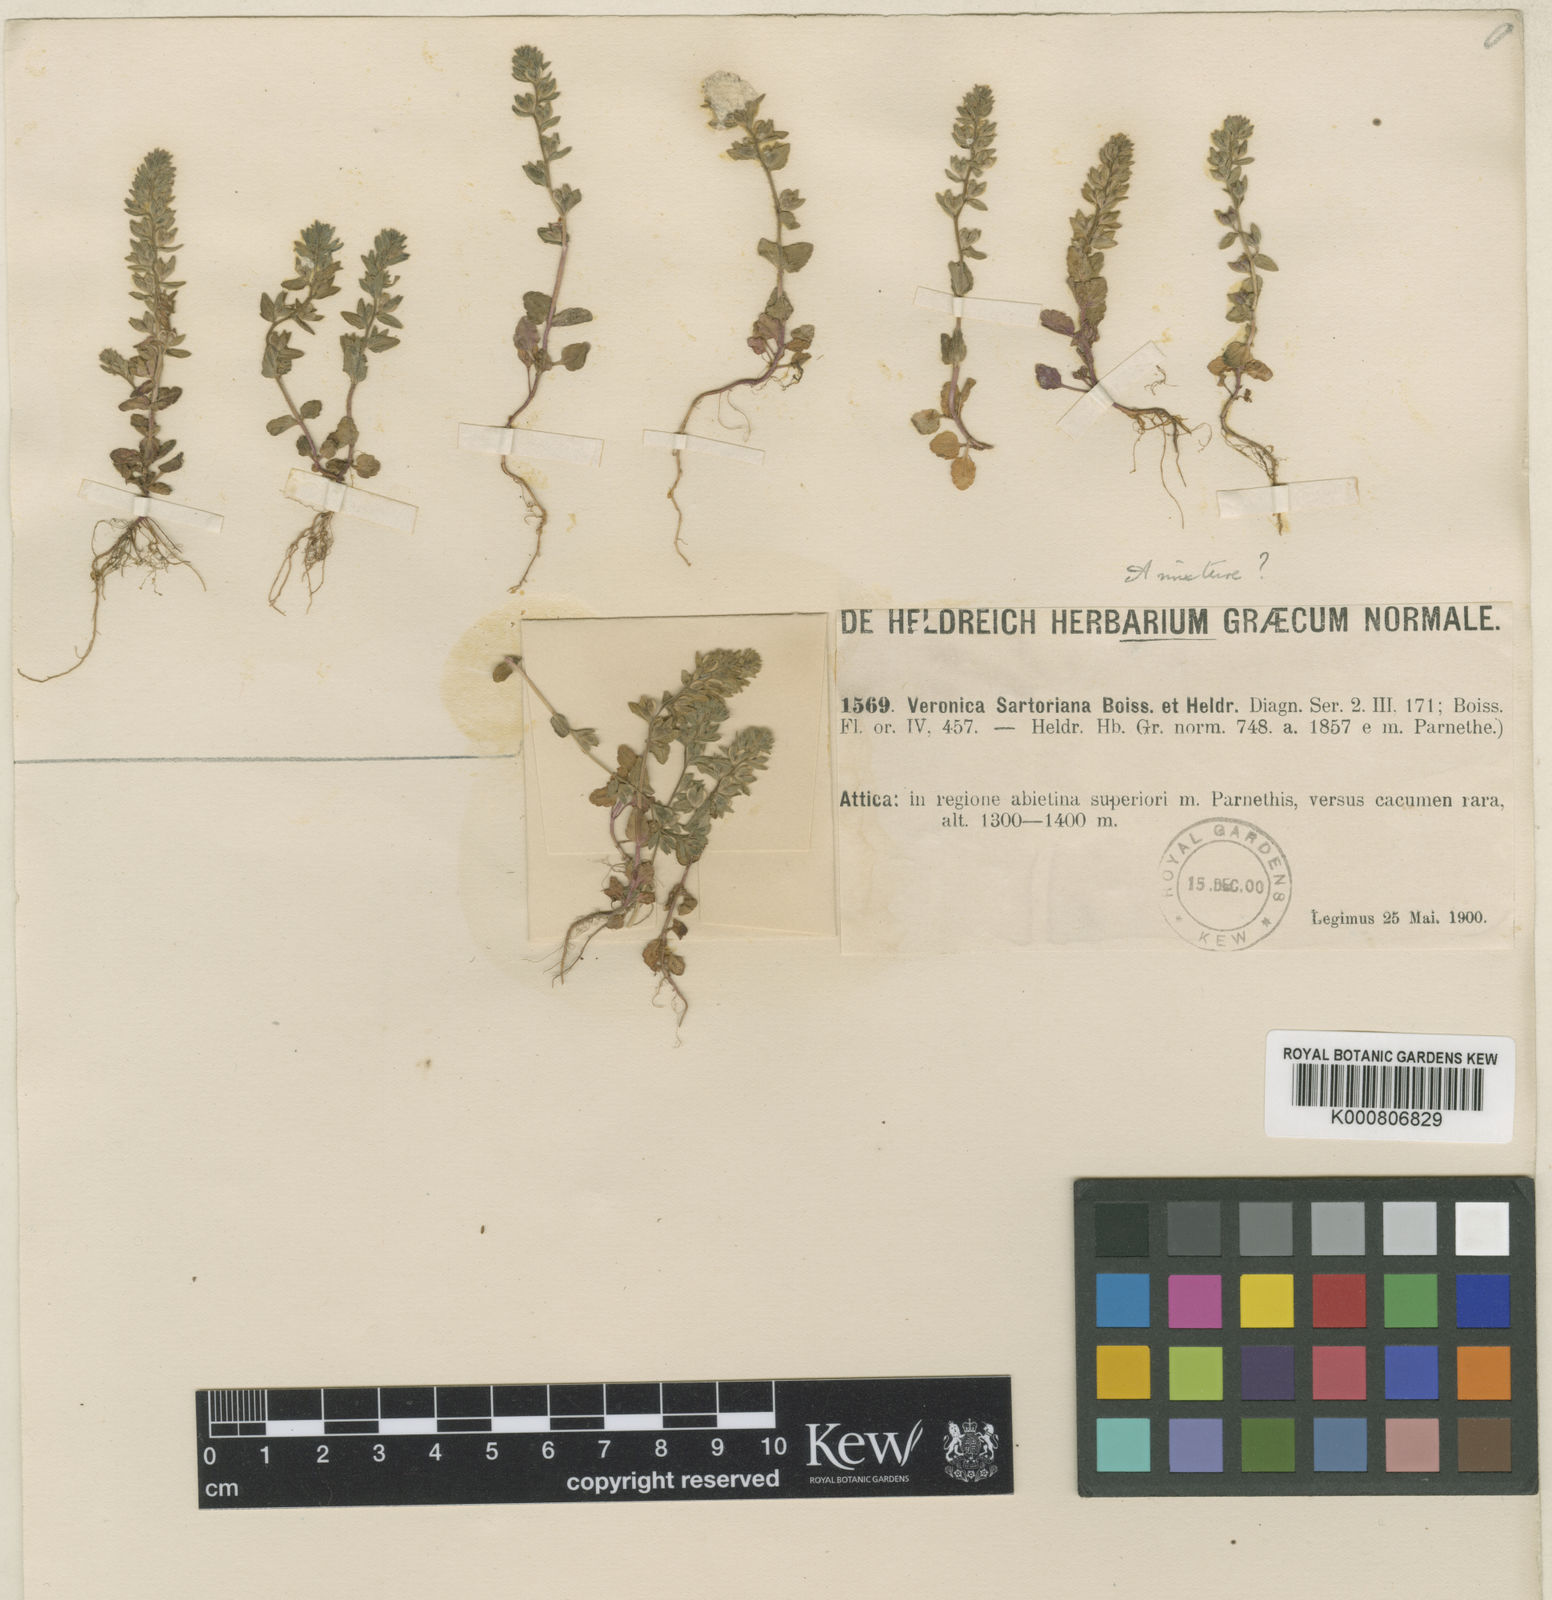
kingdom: Plantae
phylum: Tracheophyta
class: Magnoliopsida
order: Lamiales
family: Plantaginaceae
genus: Veronica
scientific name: Veronica sartoriana
